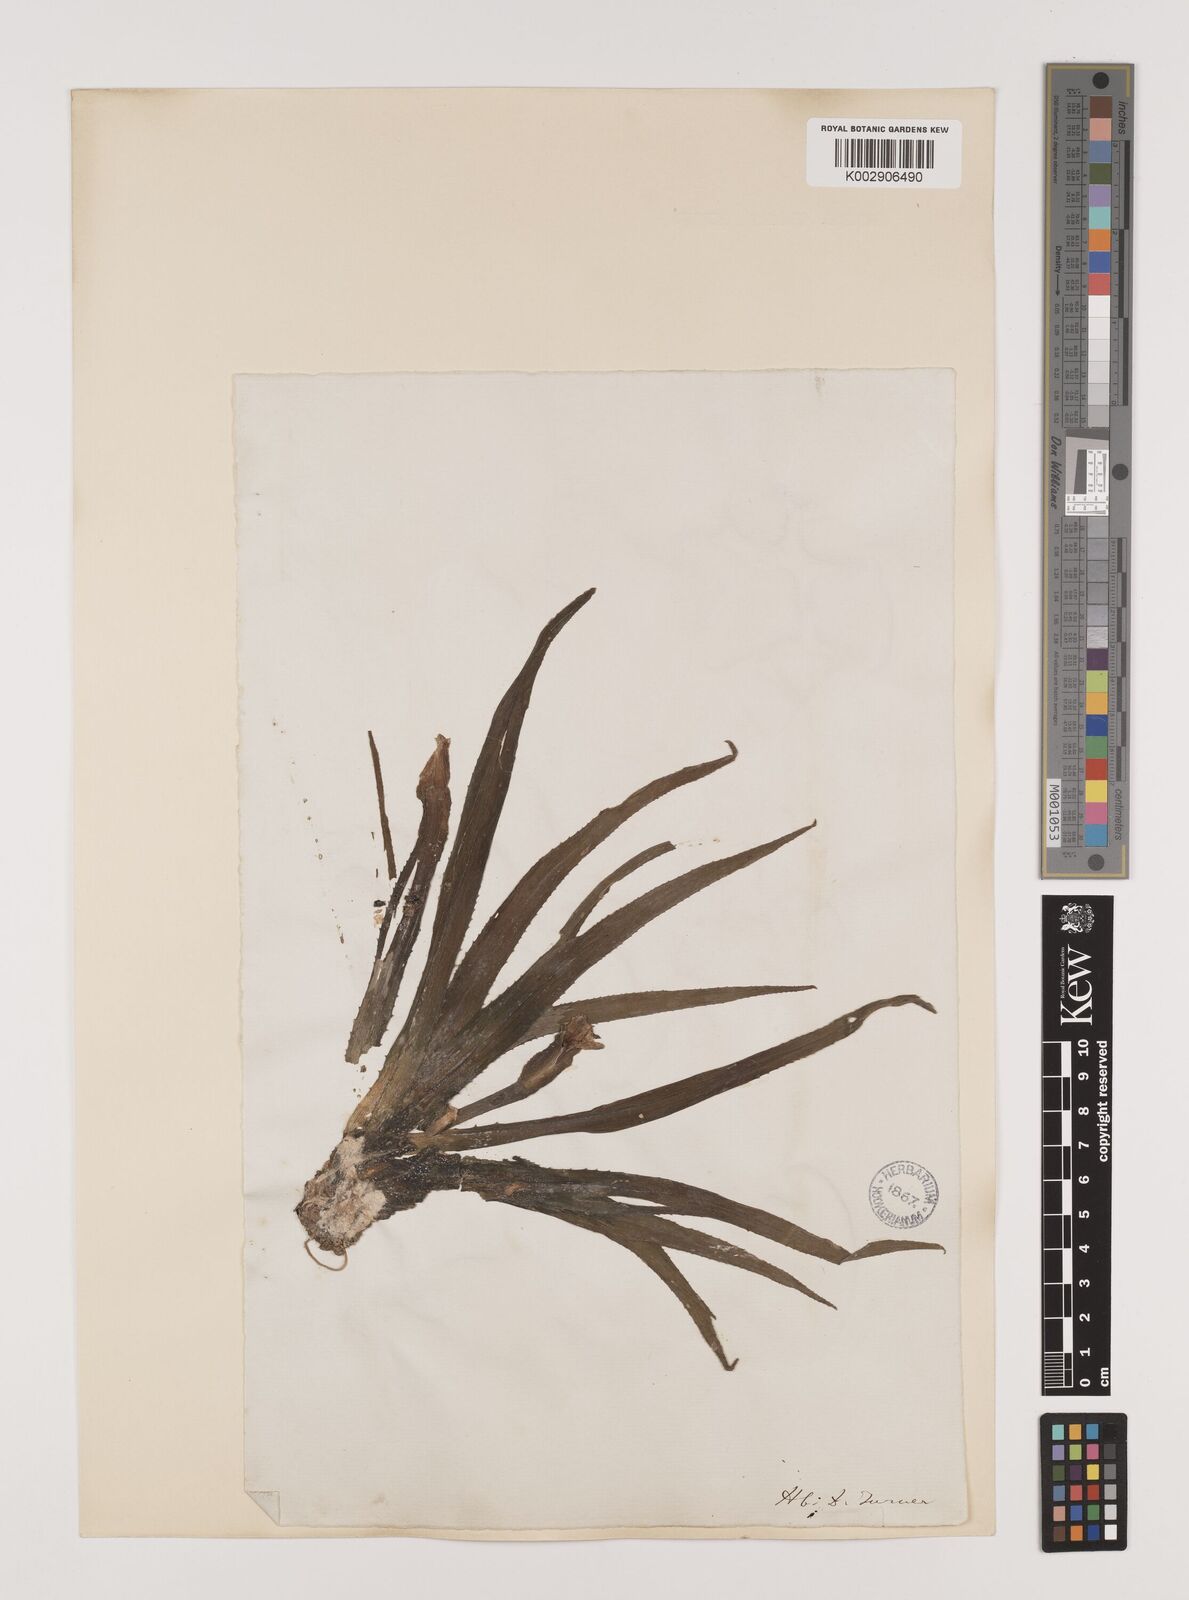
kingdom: Plantae
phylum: Tracheophyta
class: Liliopsida
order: Alismatales
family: Hydrocharitaceae
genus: Stratiotes
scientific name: Stratiotes aloides
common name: Water-soldier
